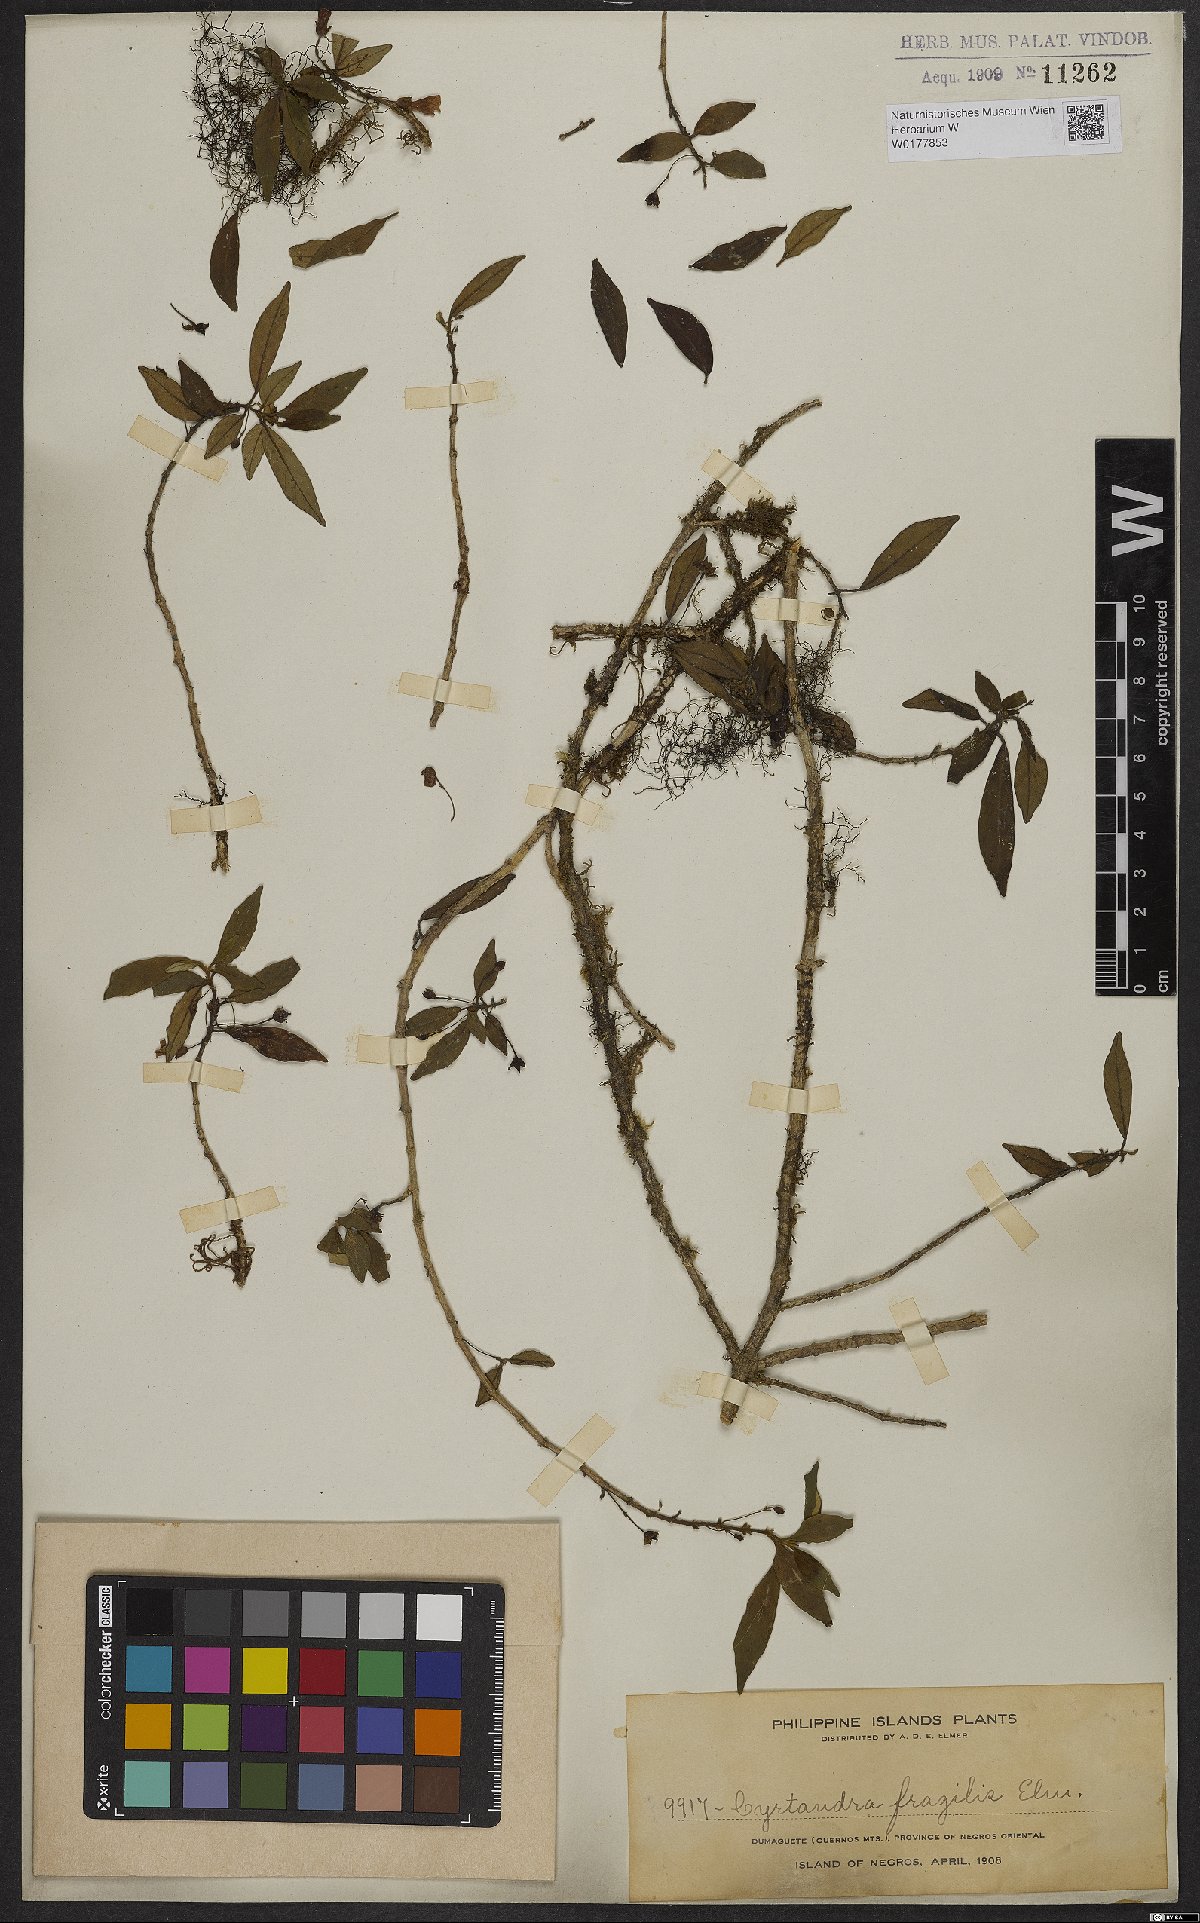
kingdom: Plantae
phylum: Tracheophyta
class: Magnoliopsida
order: Lamiales
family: Gesneriaceae
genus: Cyrtandra
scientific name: Cyrtandra parvifolia
